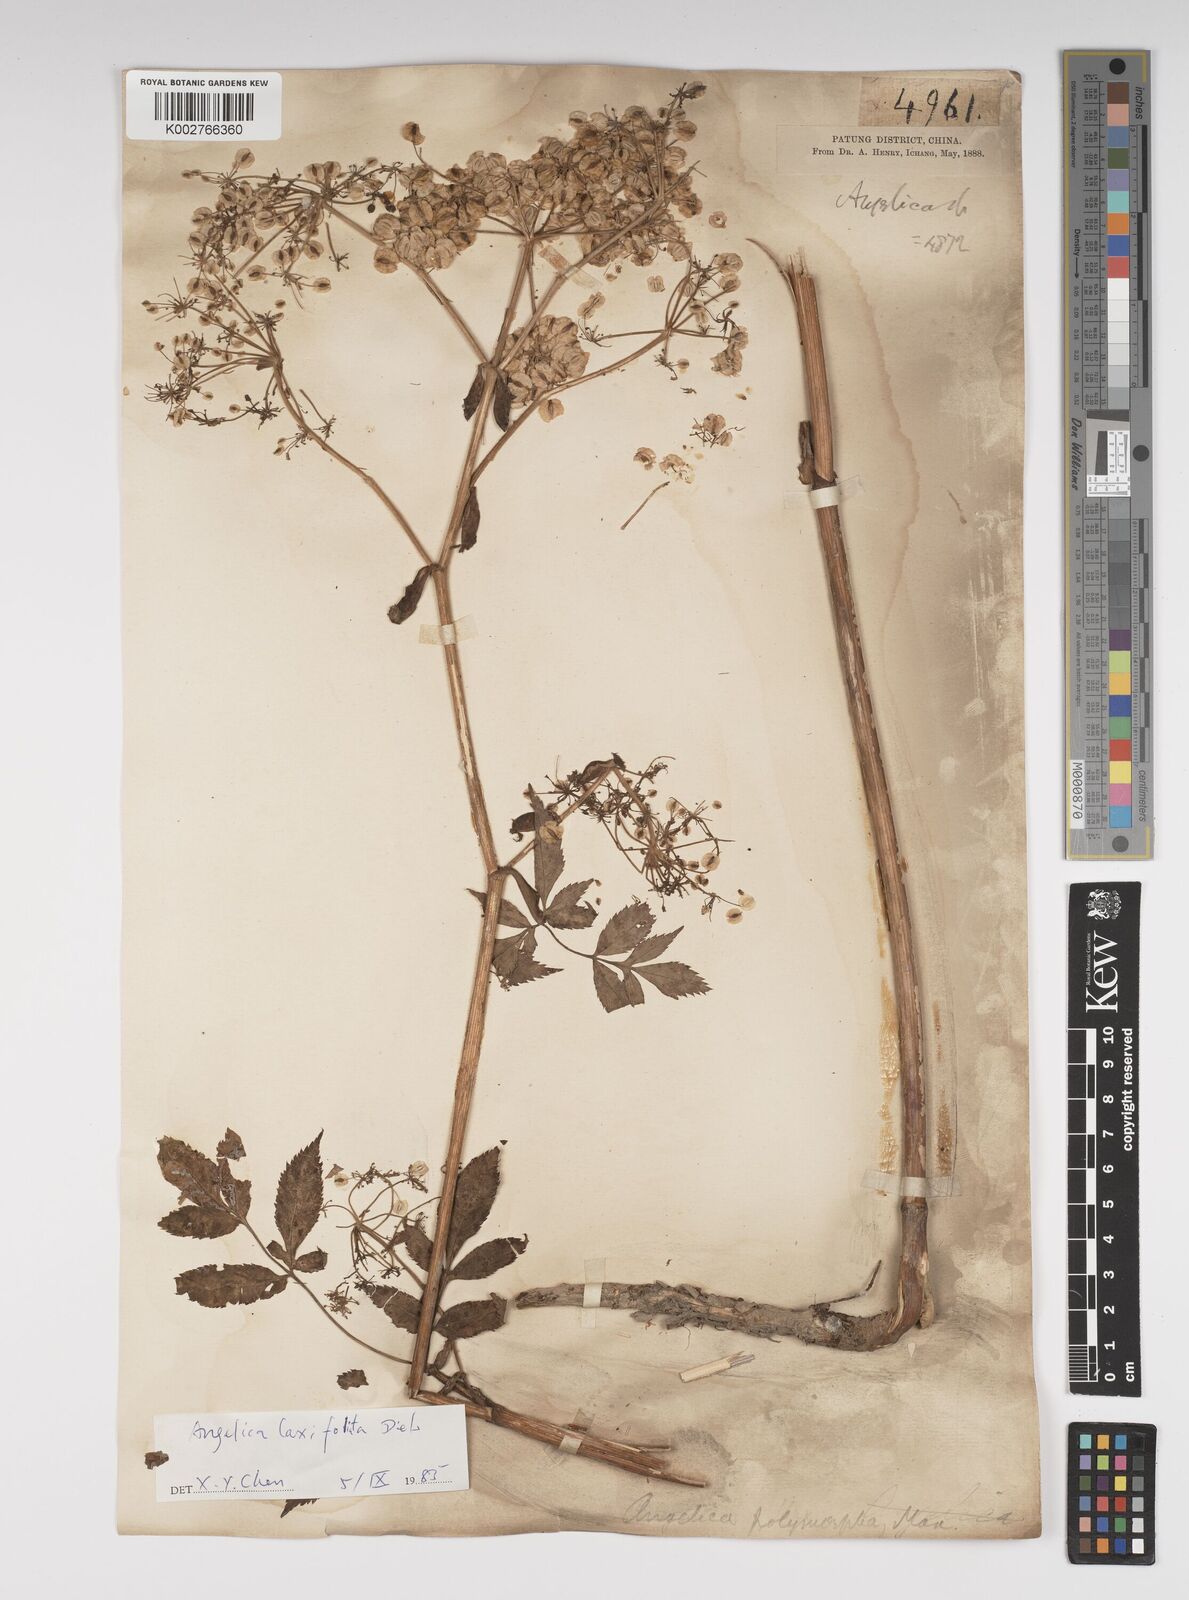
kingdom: Plantae
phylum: Tracheophyta
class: Magnoliopsida
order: Apiales
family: Apiaceae
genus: Angelica
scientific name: Angelica laxifoliata
